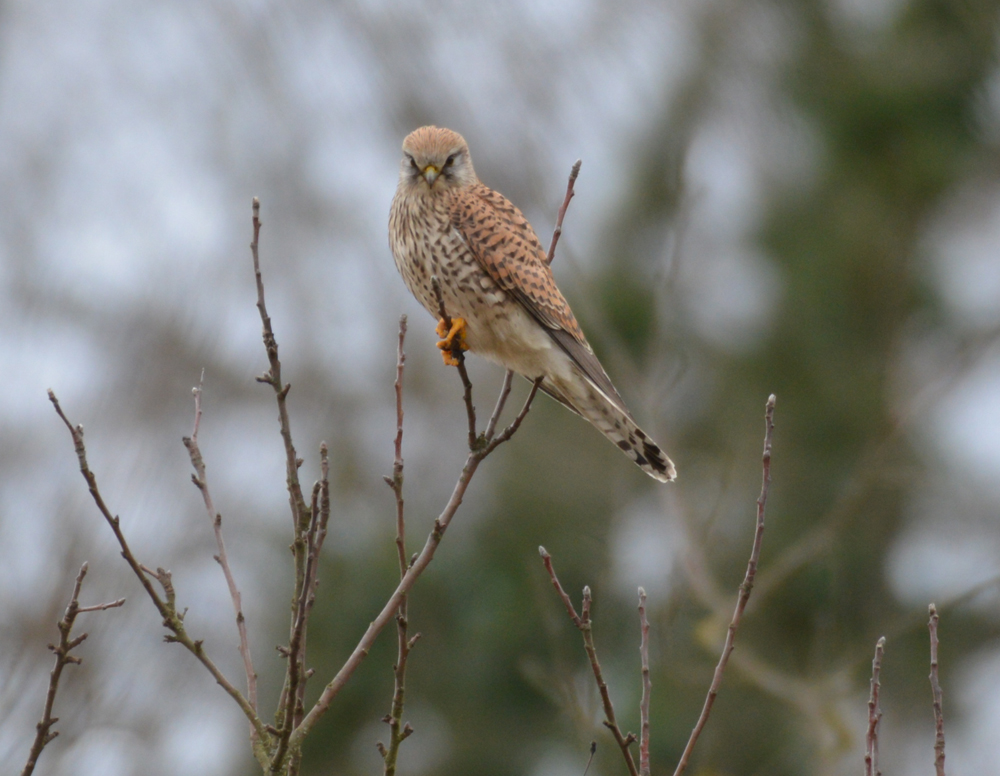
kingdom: Animalia
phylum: Chordata
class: Aves
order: Falconiformes
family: Falconidae
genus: Falco
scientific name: Falco tinnunculus
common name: Common kestrel
